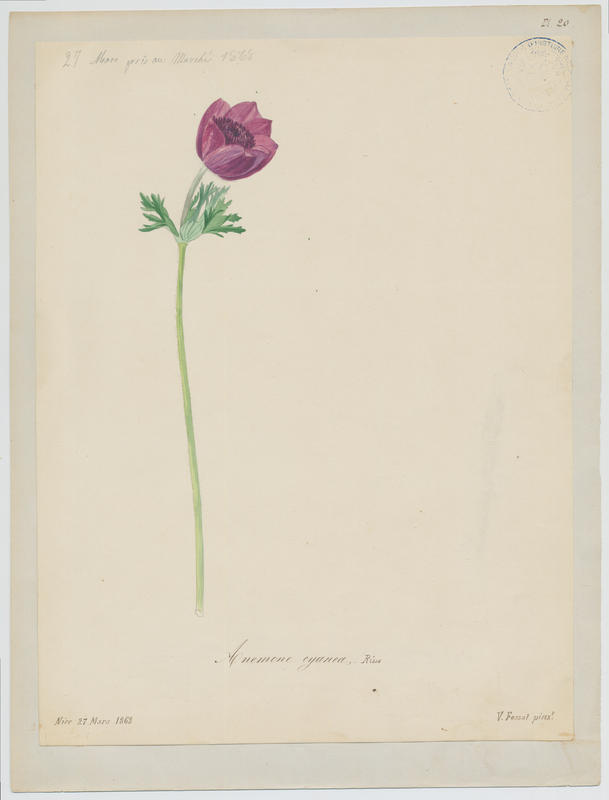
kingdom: Plantae
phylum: Tracheophyta
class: Magnoliopsida
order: Ranunculales
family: Ranunculaceae
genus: Anemone
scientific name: Anemone coronaria
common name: Poppy anemone
